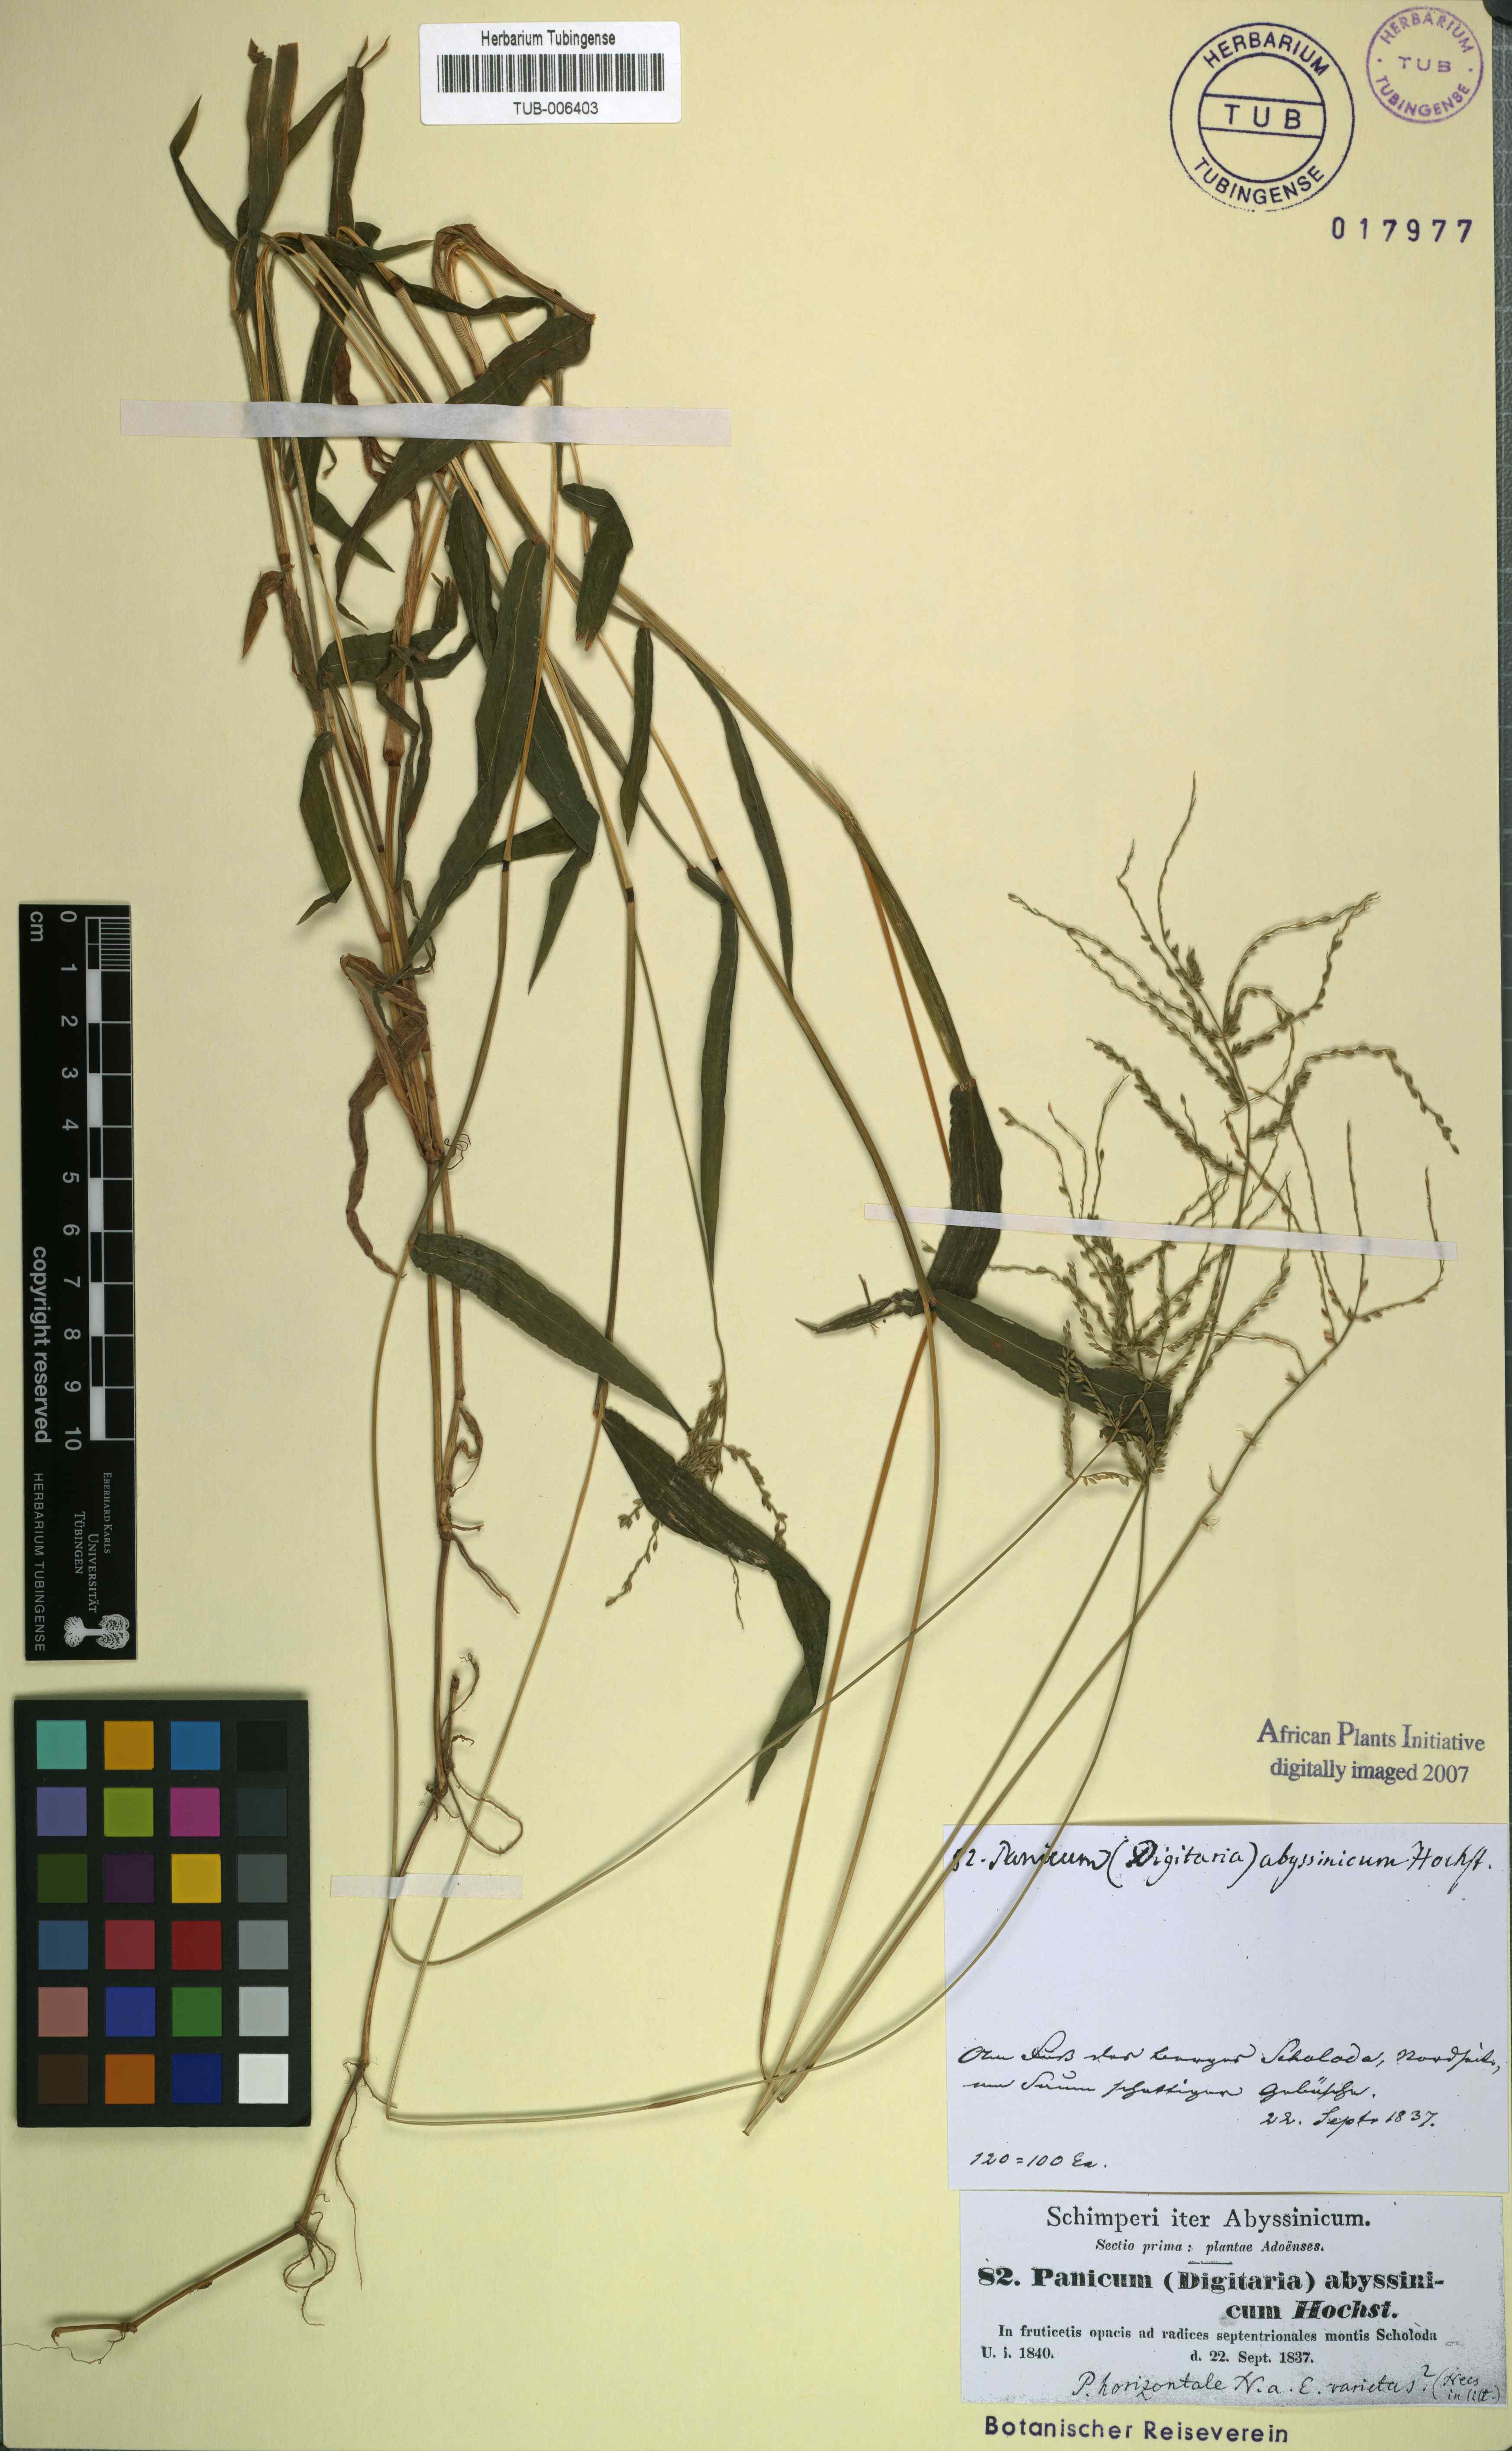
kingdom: Plantae
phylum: Tracheophyta
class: Liliopsida
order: Poales
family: Poaceae
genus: Panicum
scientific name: Panicum abyssinicum
